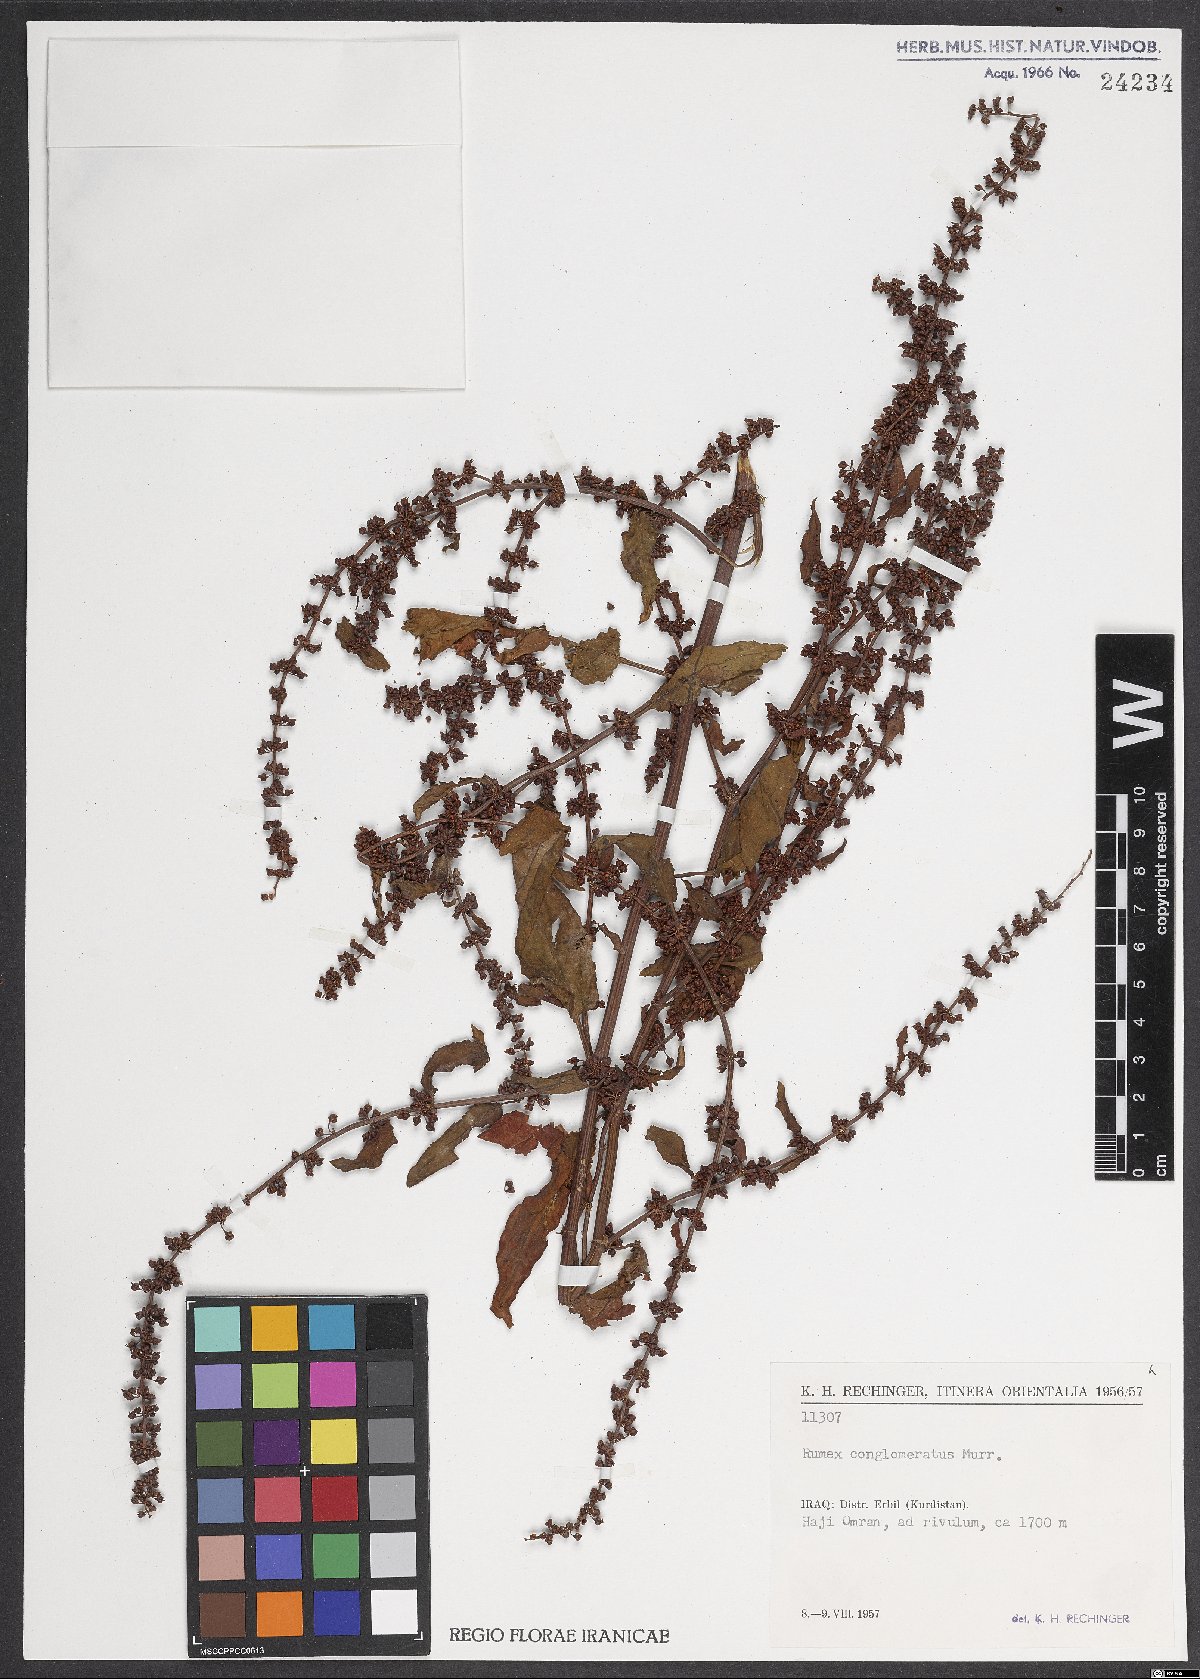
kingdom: Plantae
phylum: Tracheophyta
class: Magnoliopsida
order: Caryophyllales
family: Polygonaceae
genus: Rumex
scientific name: Rumex conglomeratus
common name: Clustered dock
